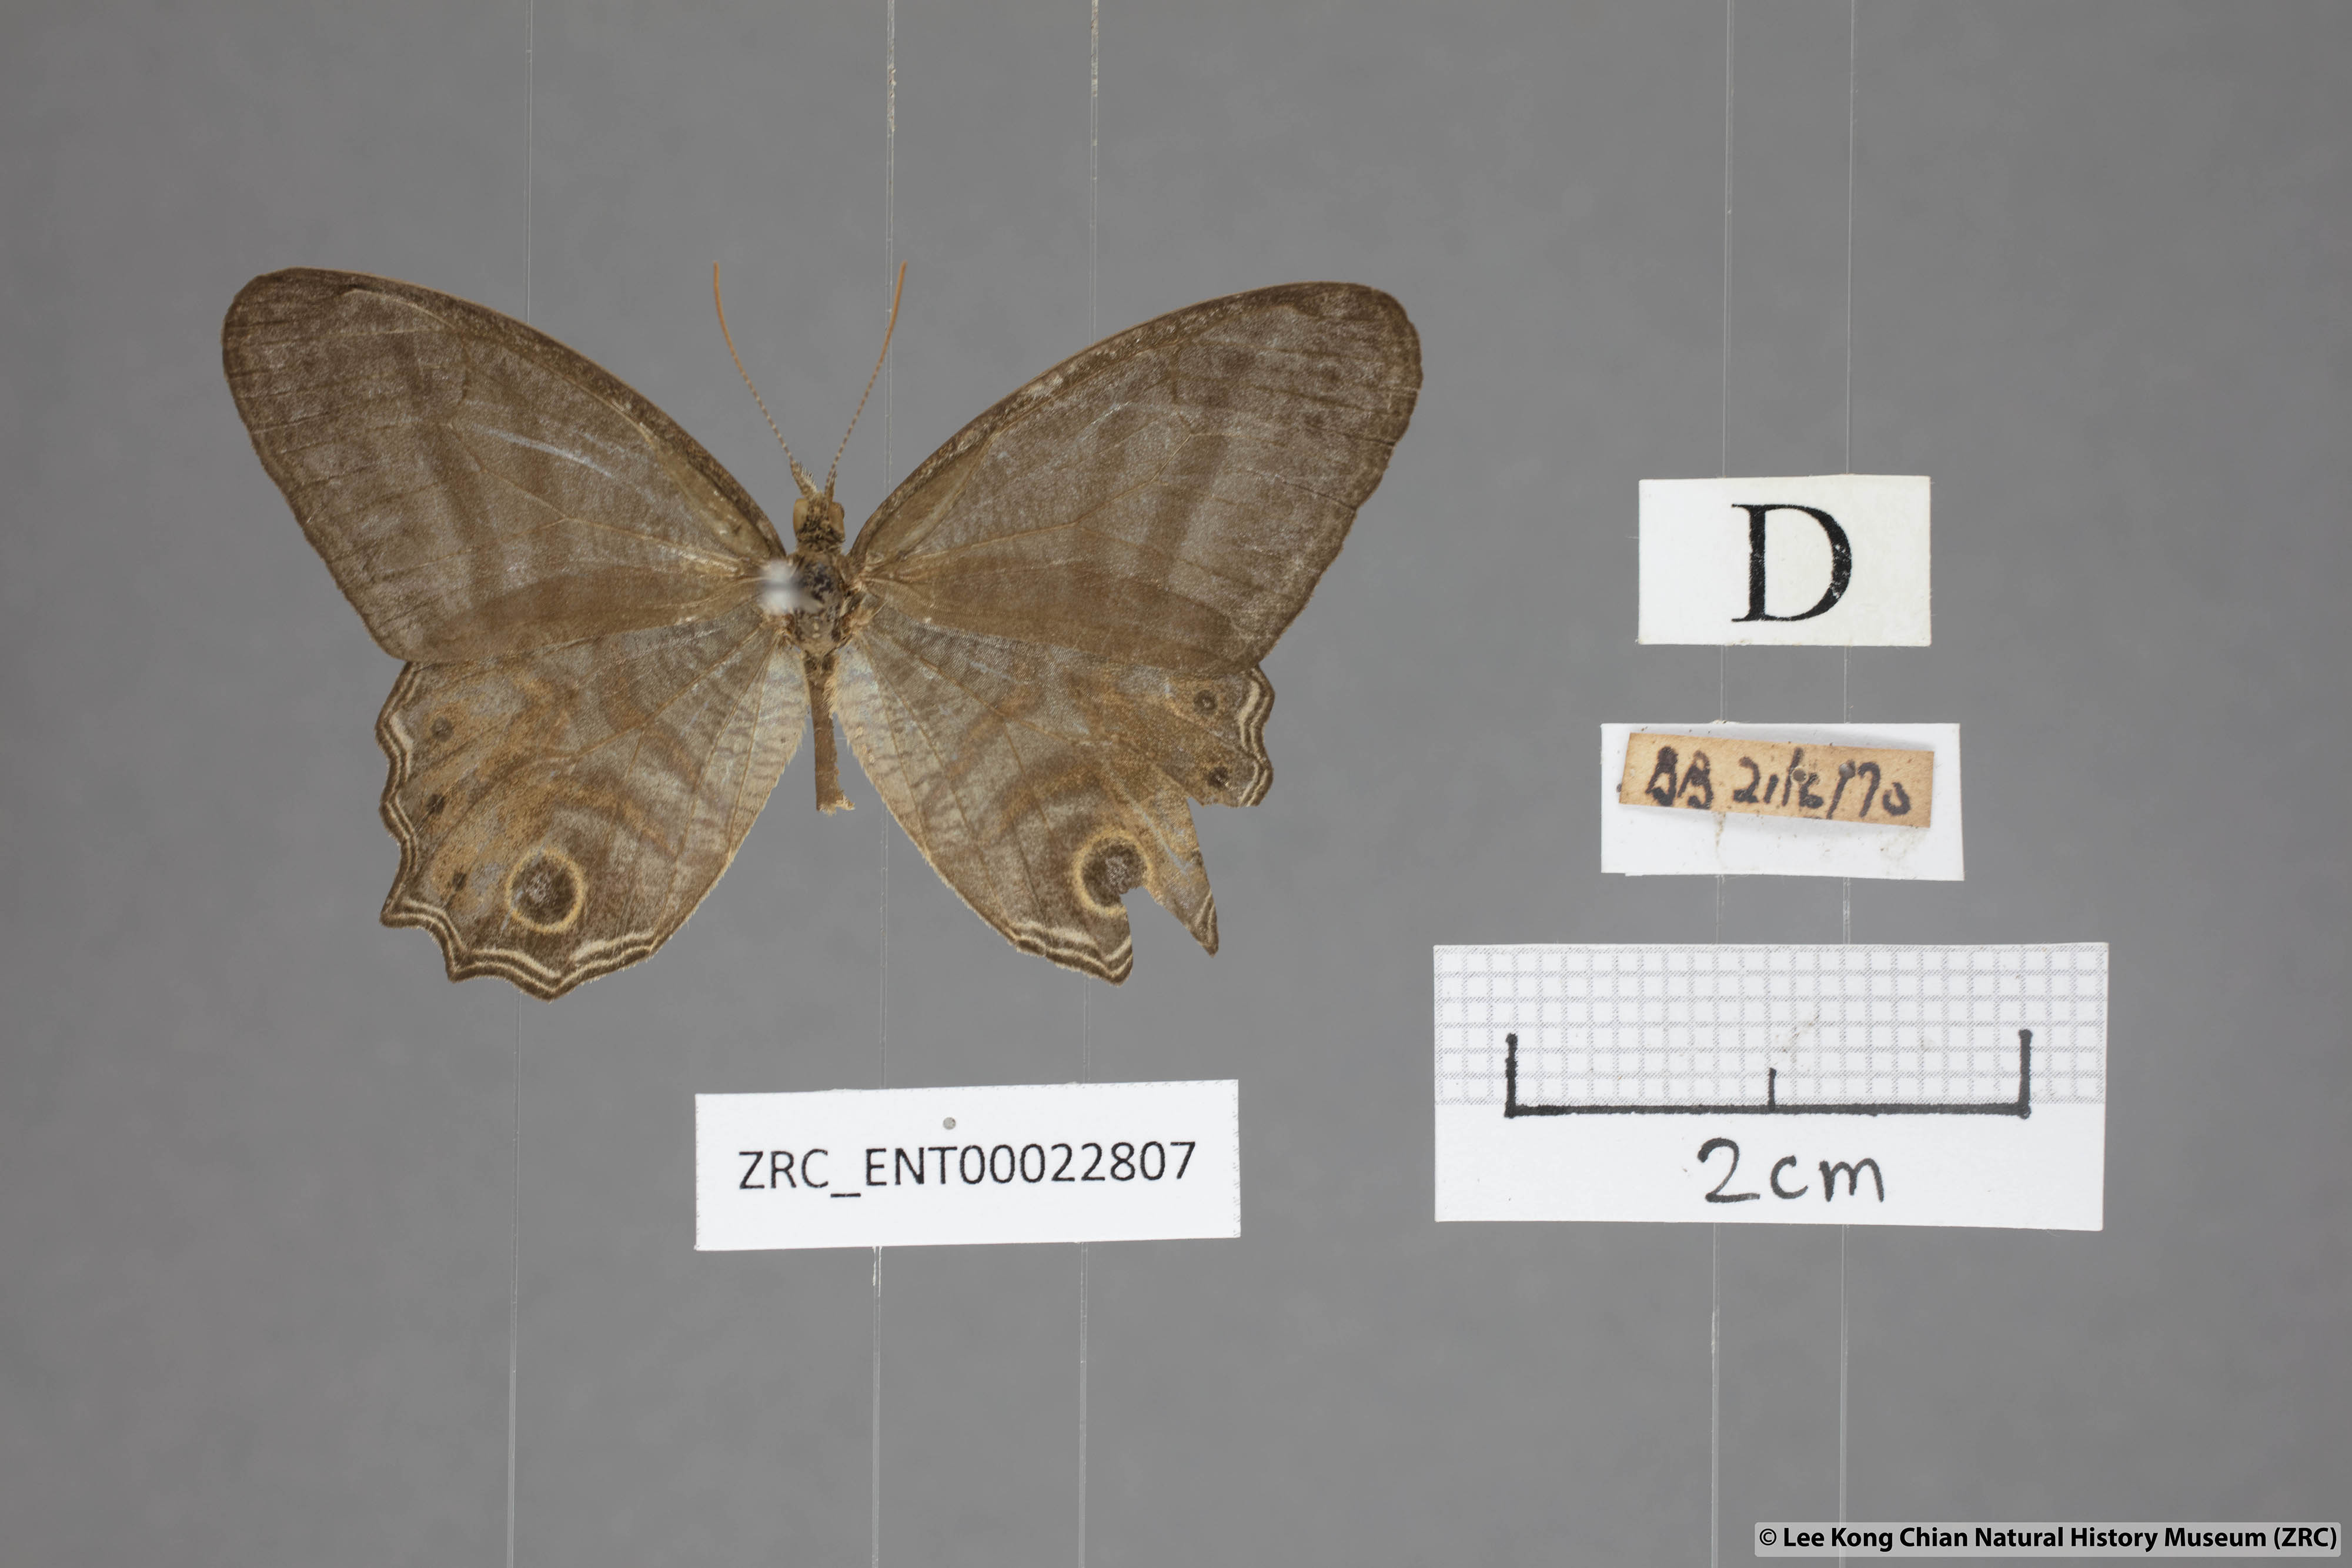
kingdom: Animalia
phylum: Arthropoda
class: Insecta
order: Lepidoptera
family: Nymphalidae
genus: Erites
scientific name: Erites elegans
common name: Elegent cyclops
